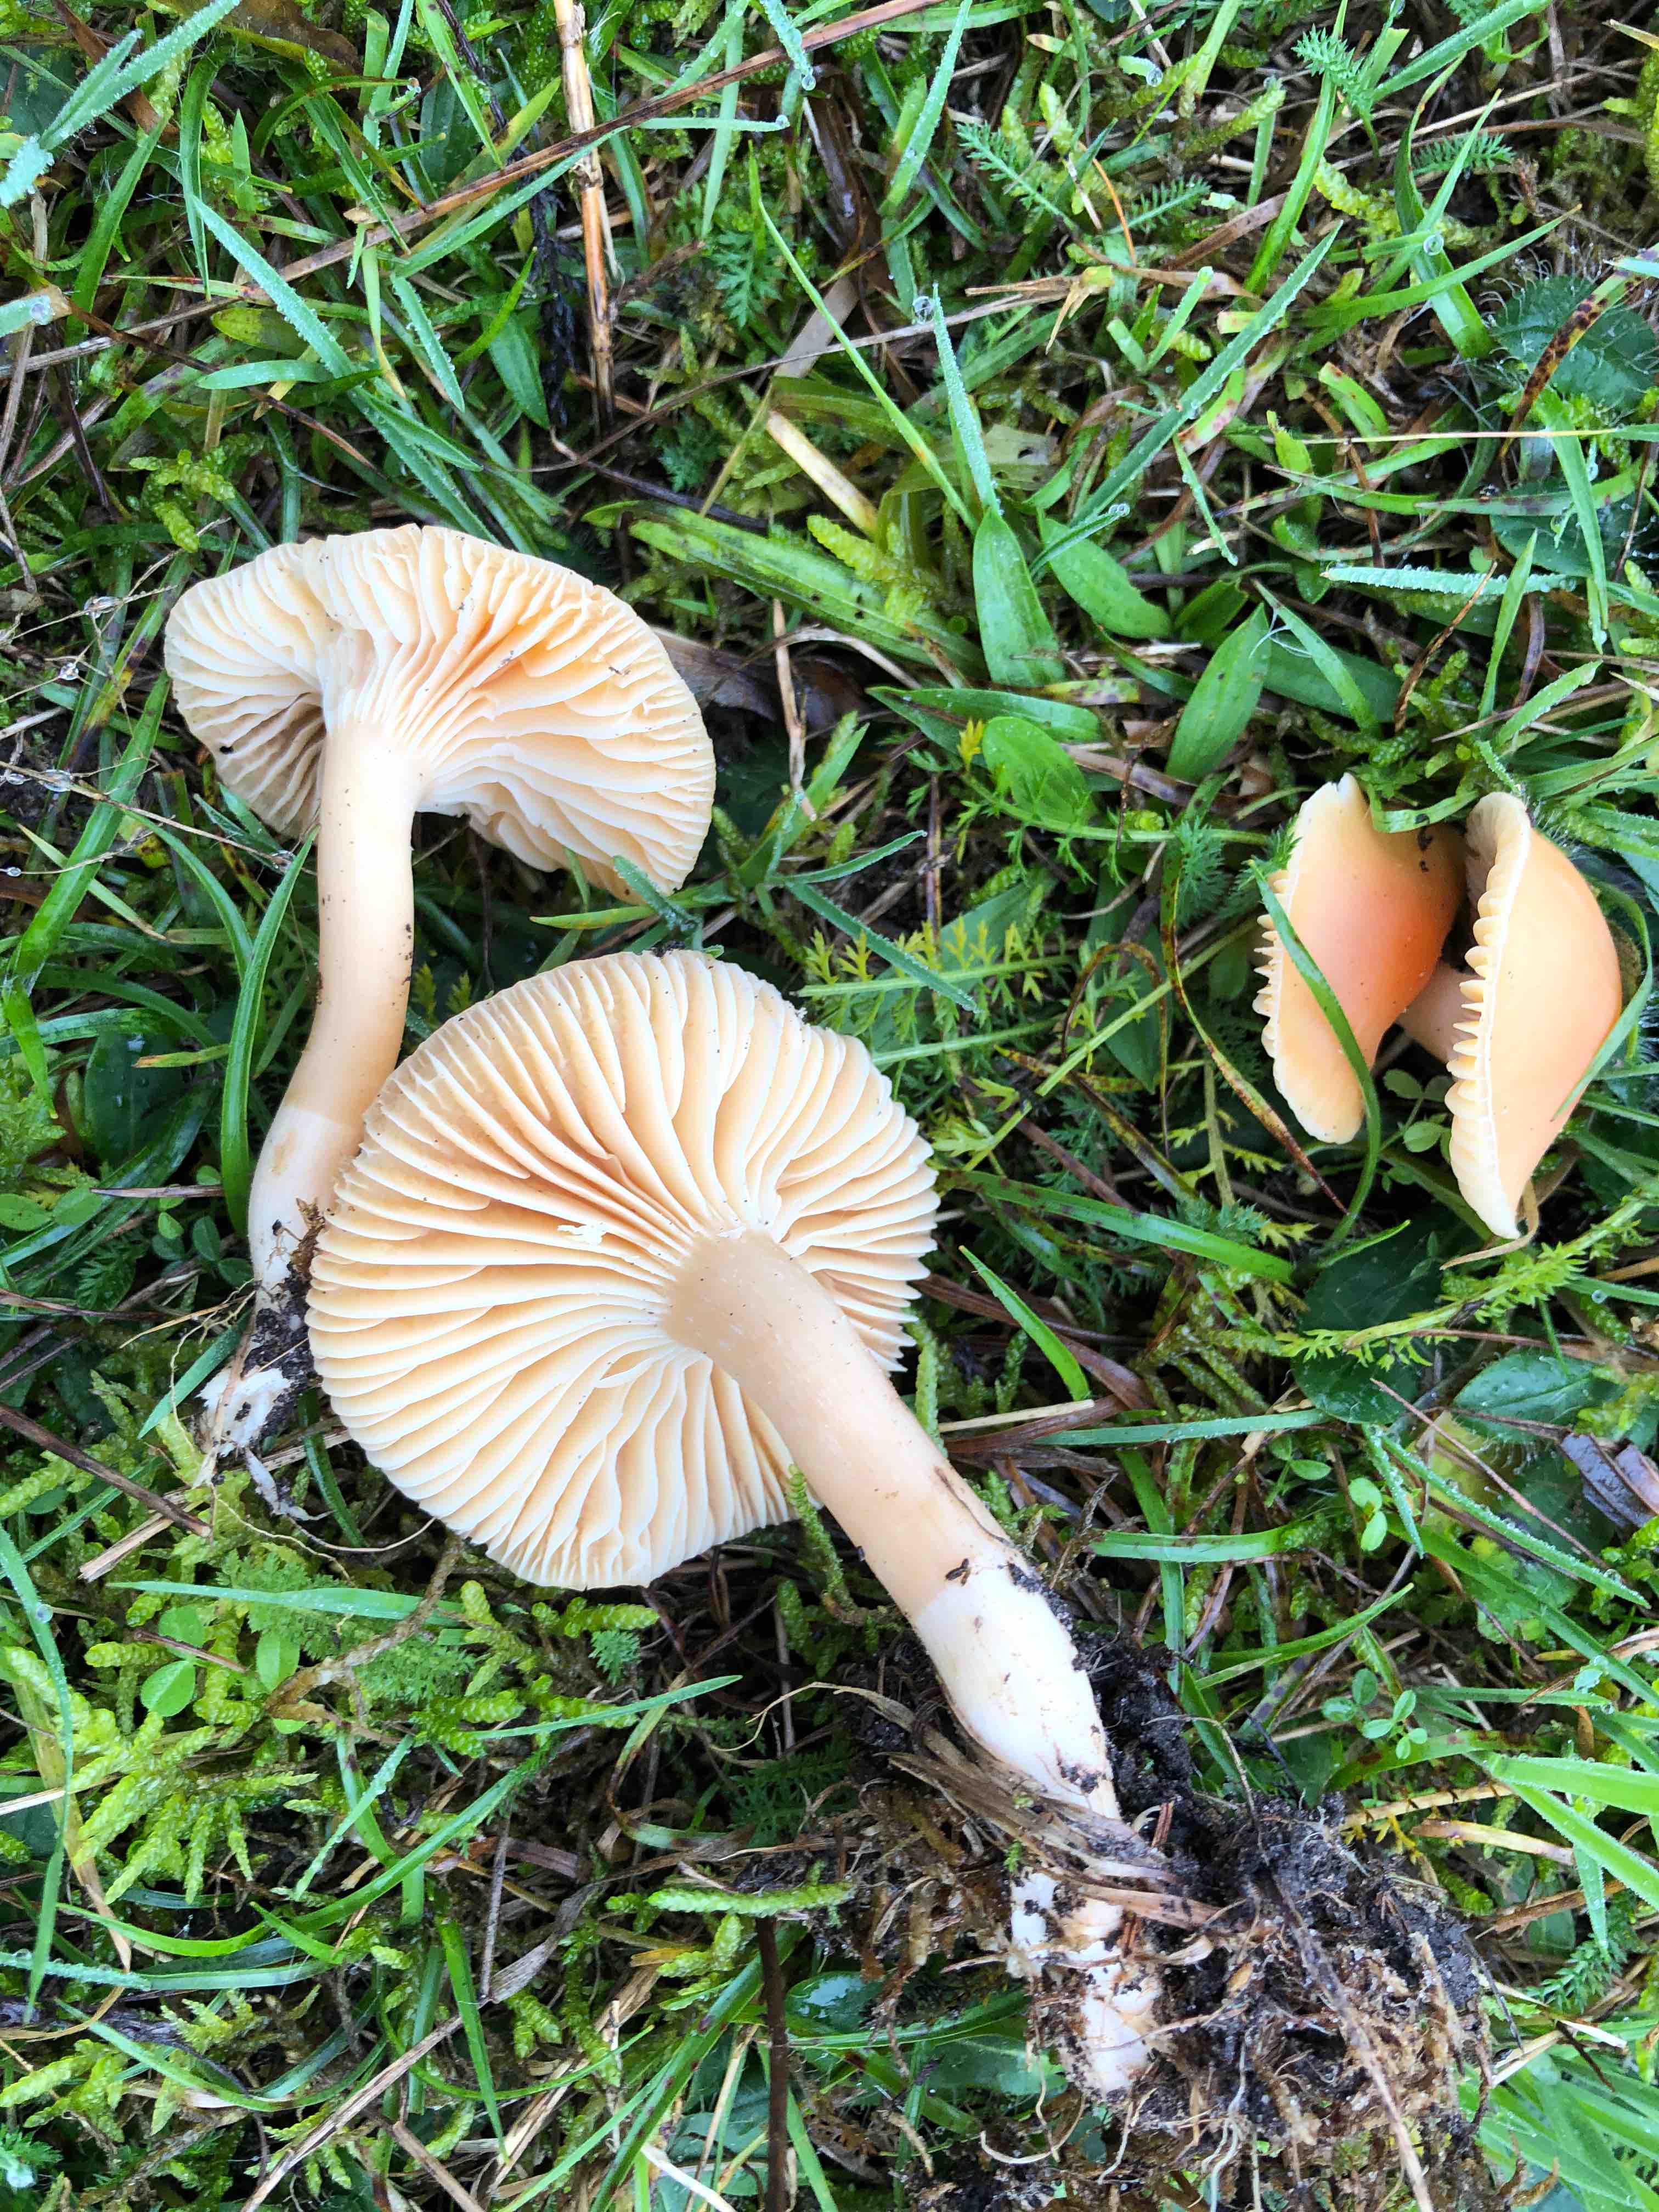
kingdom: Fungi
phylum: Basidiomycota
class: Agaricomycetes
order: Agaricales
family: Hygrophoraceae
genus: Cuphophyllus
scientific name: Cuphophyllus pratensis
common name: eng-vokshat
